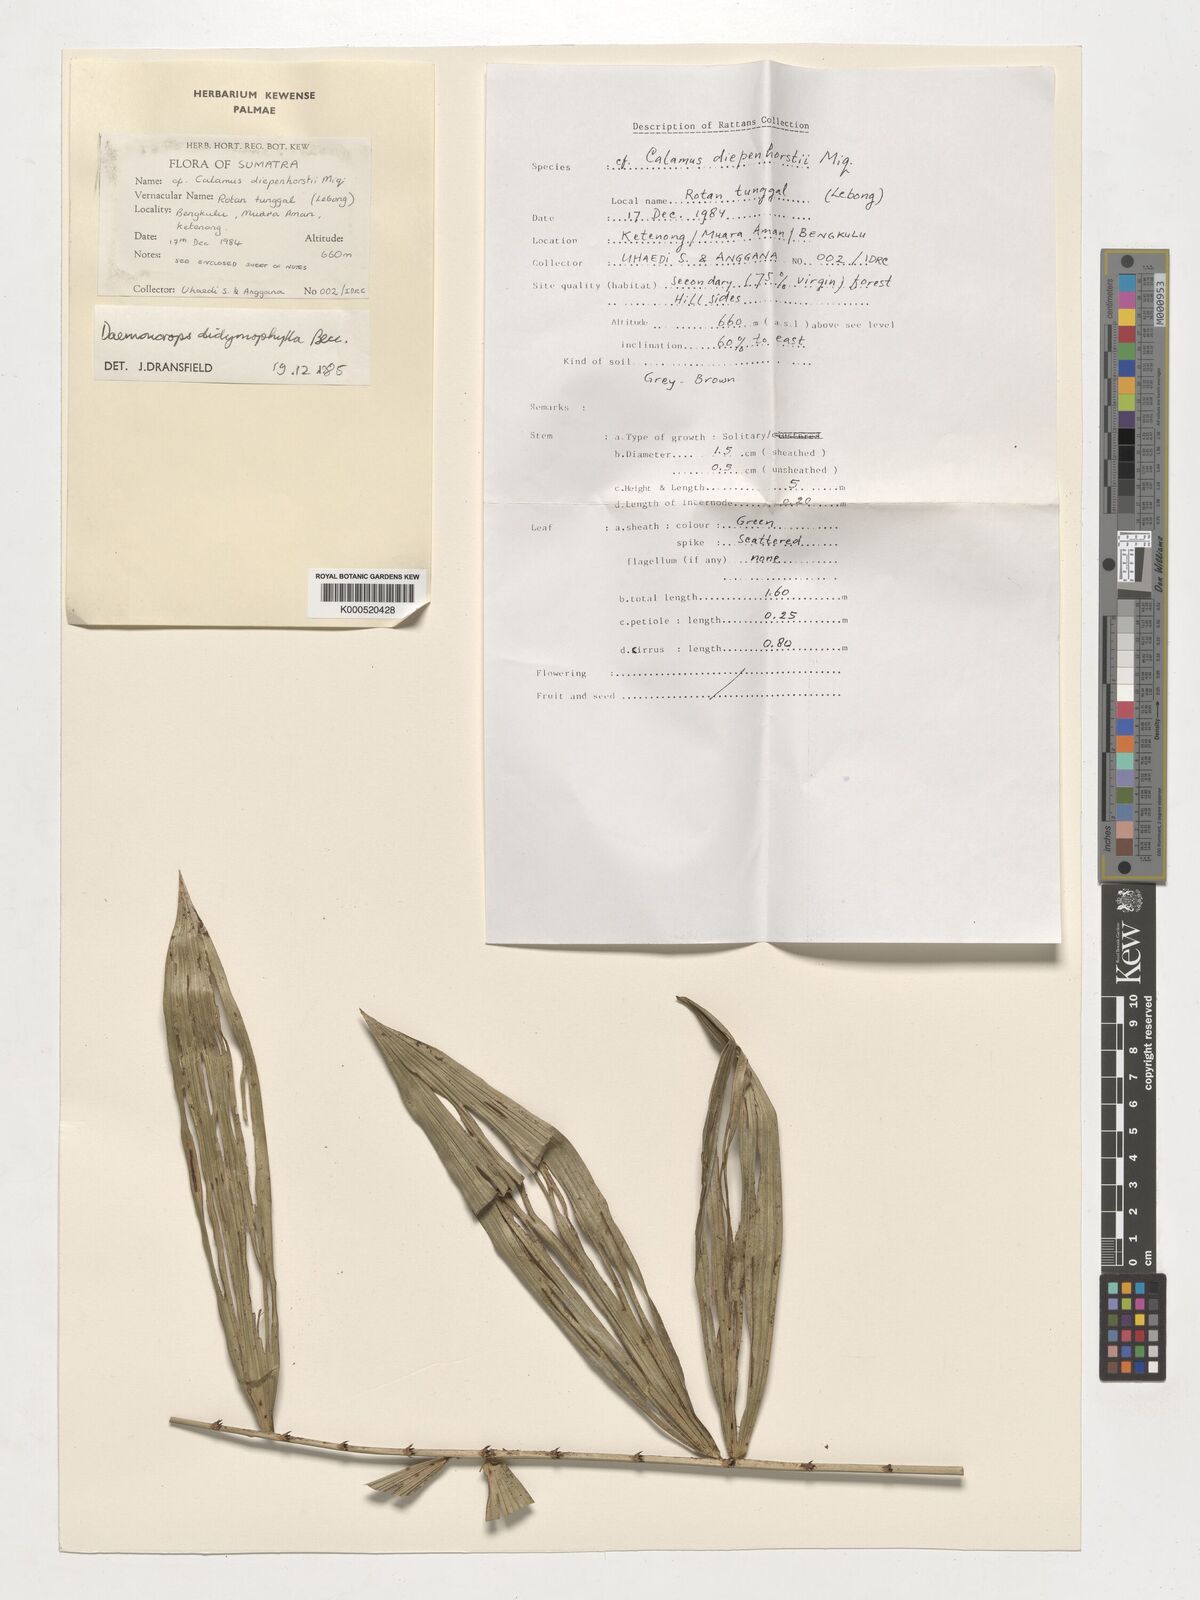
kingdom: Plantae
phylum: Tracheophyta
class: Liliopsida
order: Arecales
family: Arecaceae
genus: Calamus
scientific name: Calamus gracilipes
